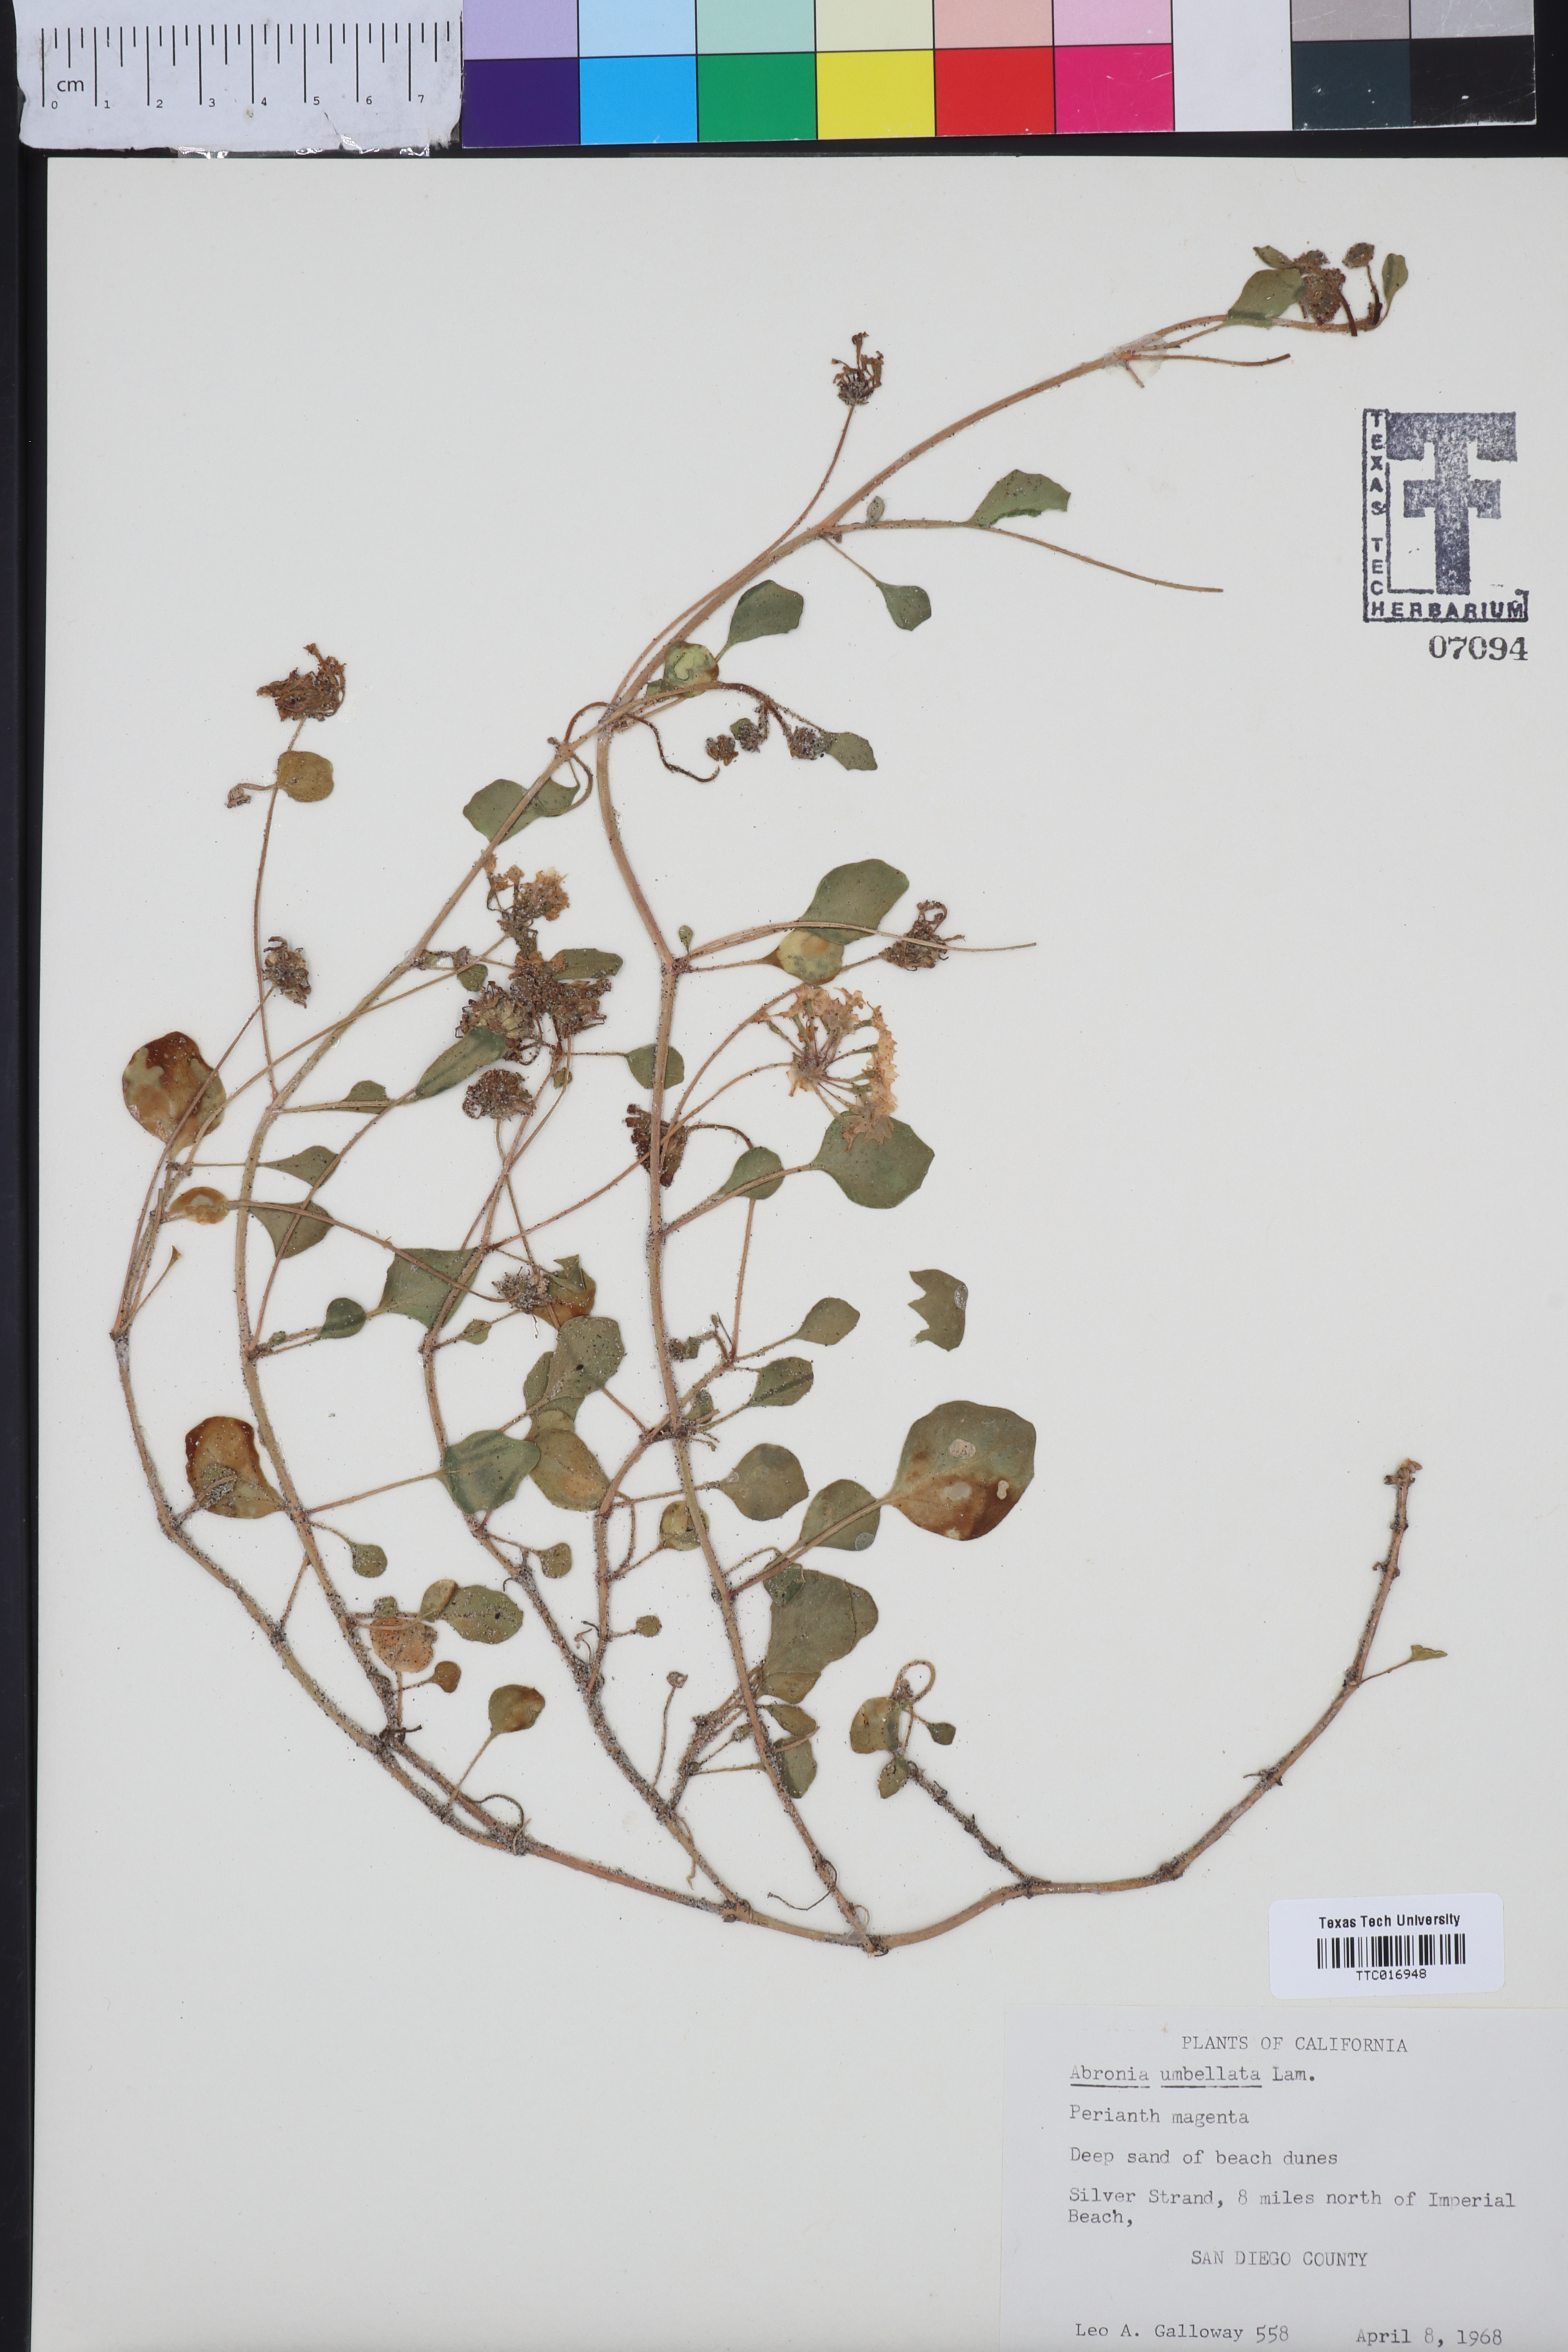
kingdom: Plantae
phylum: Tracheophyta
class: Magnoliopsida
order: Caryophyllales
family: Nyctaginaceae
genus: Abronia
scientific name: Abronia umbellata
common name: Sand-verbena
